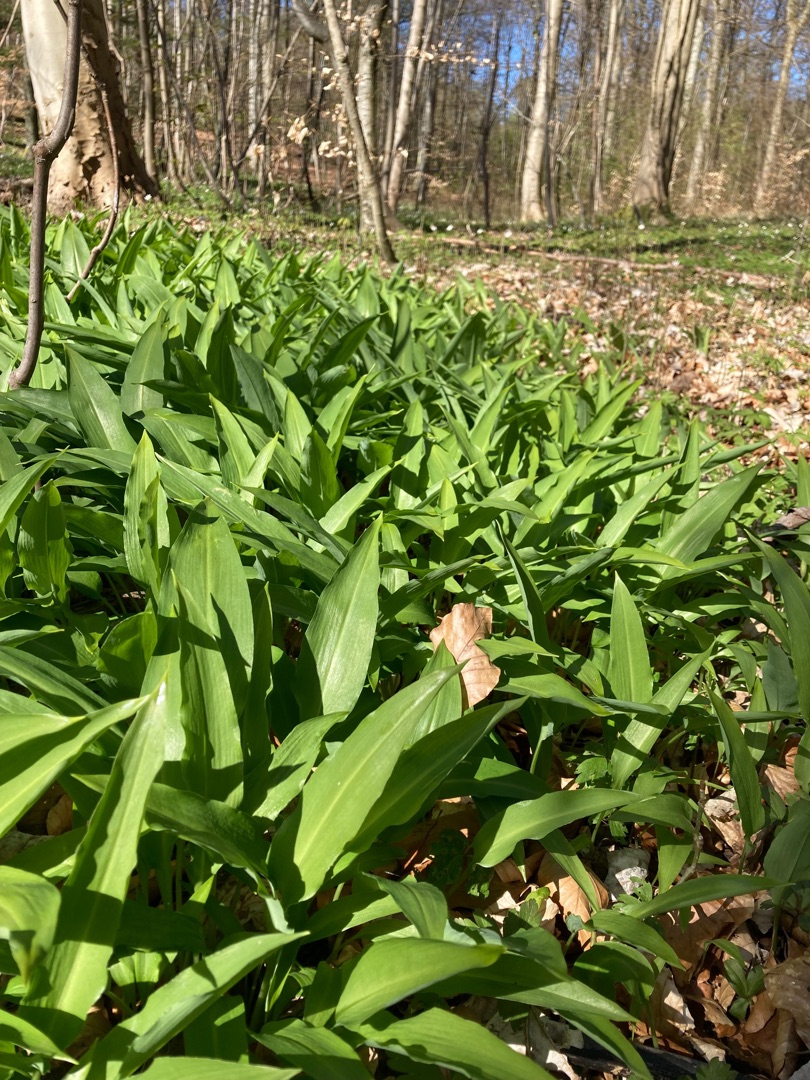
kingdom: Plantae
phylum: Tracheophyta
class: Liliopsida
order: Asparagales
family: Amaryllidaceae
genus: Allium
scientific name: Allium ursinum
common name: Rams-løg
